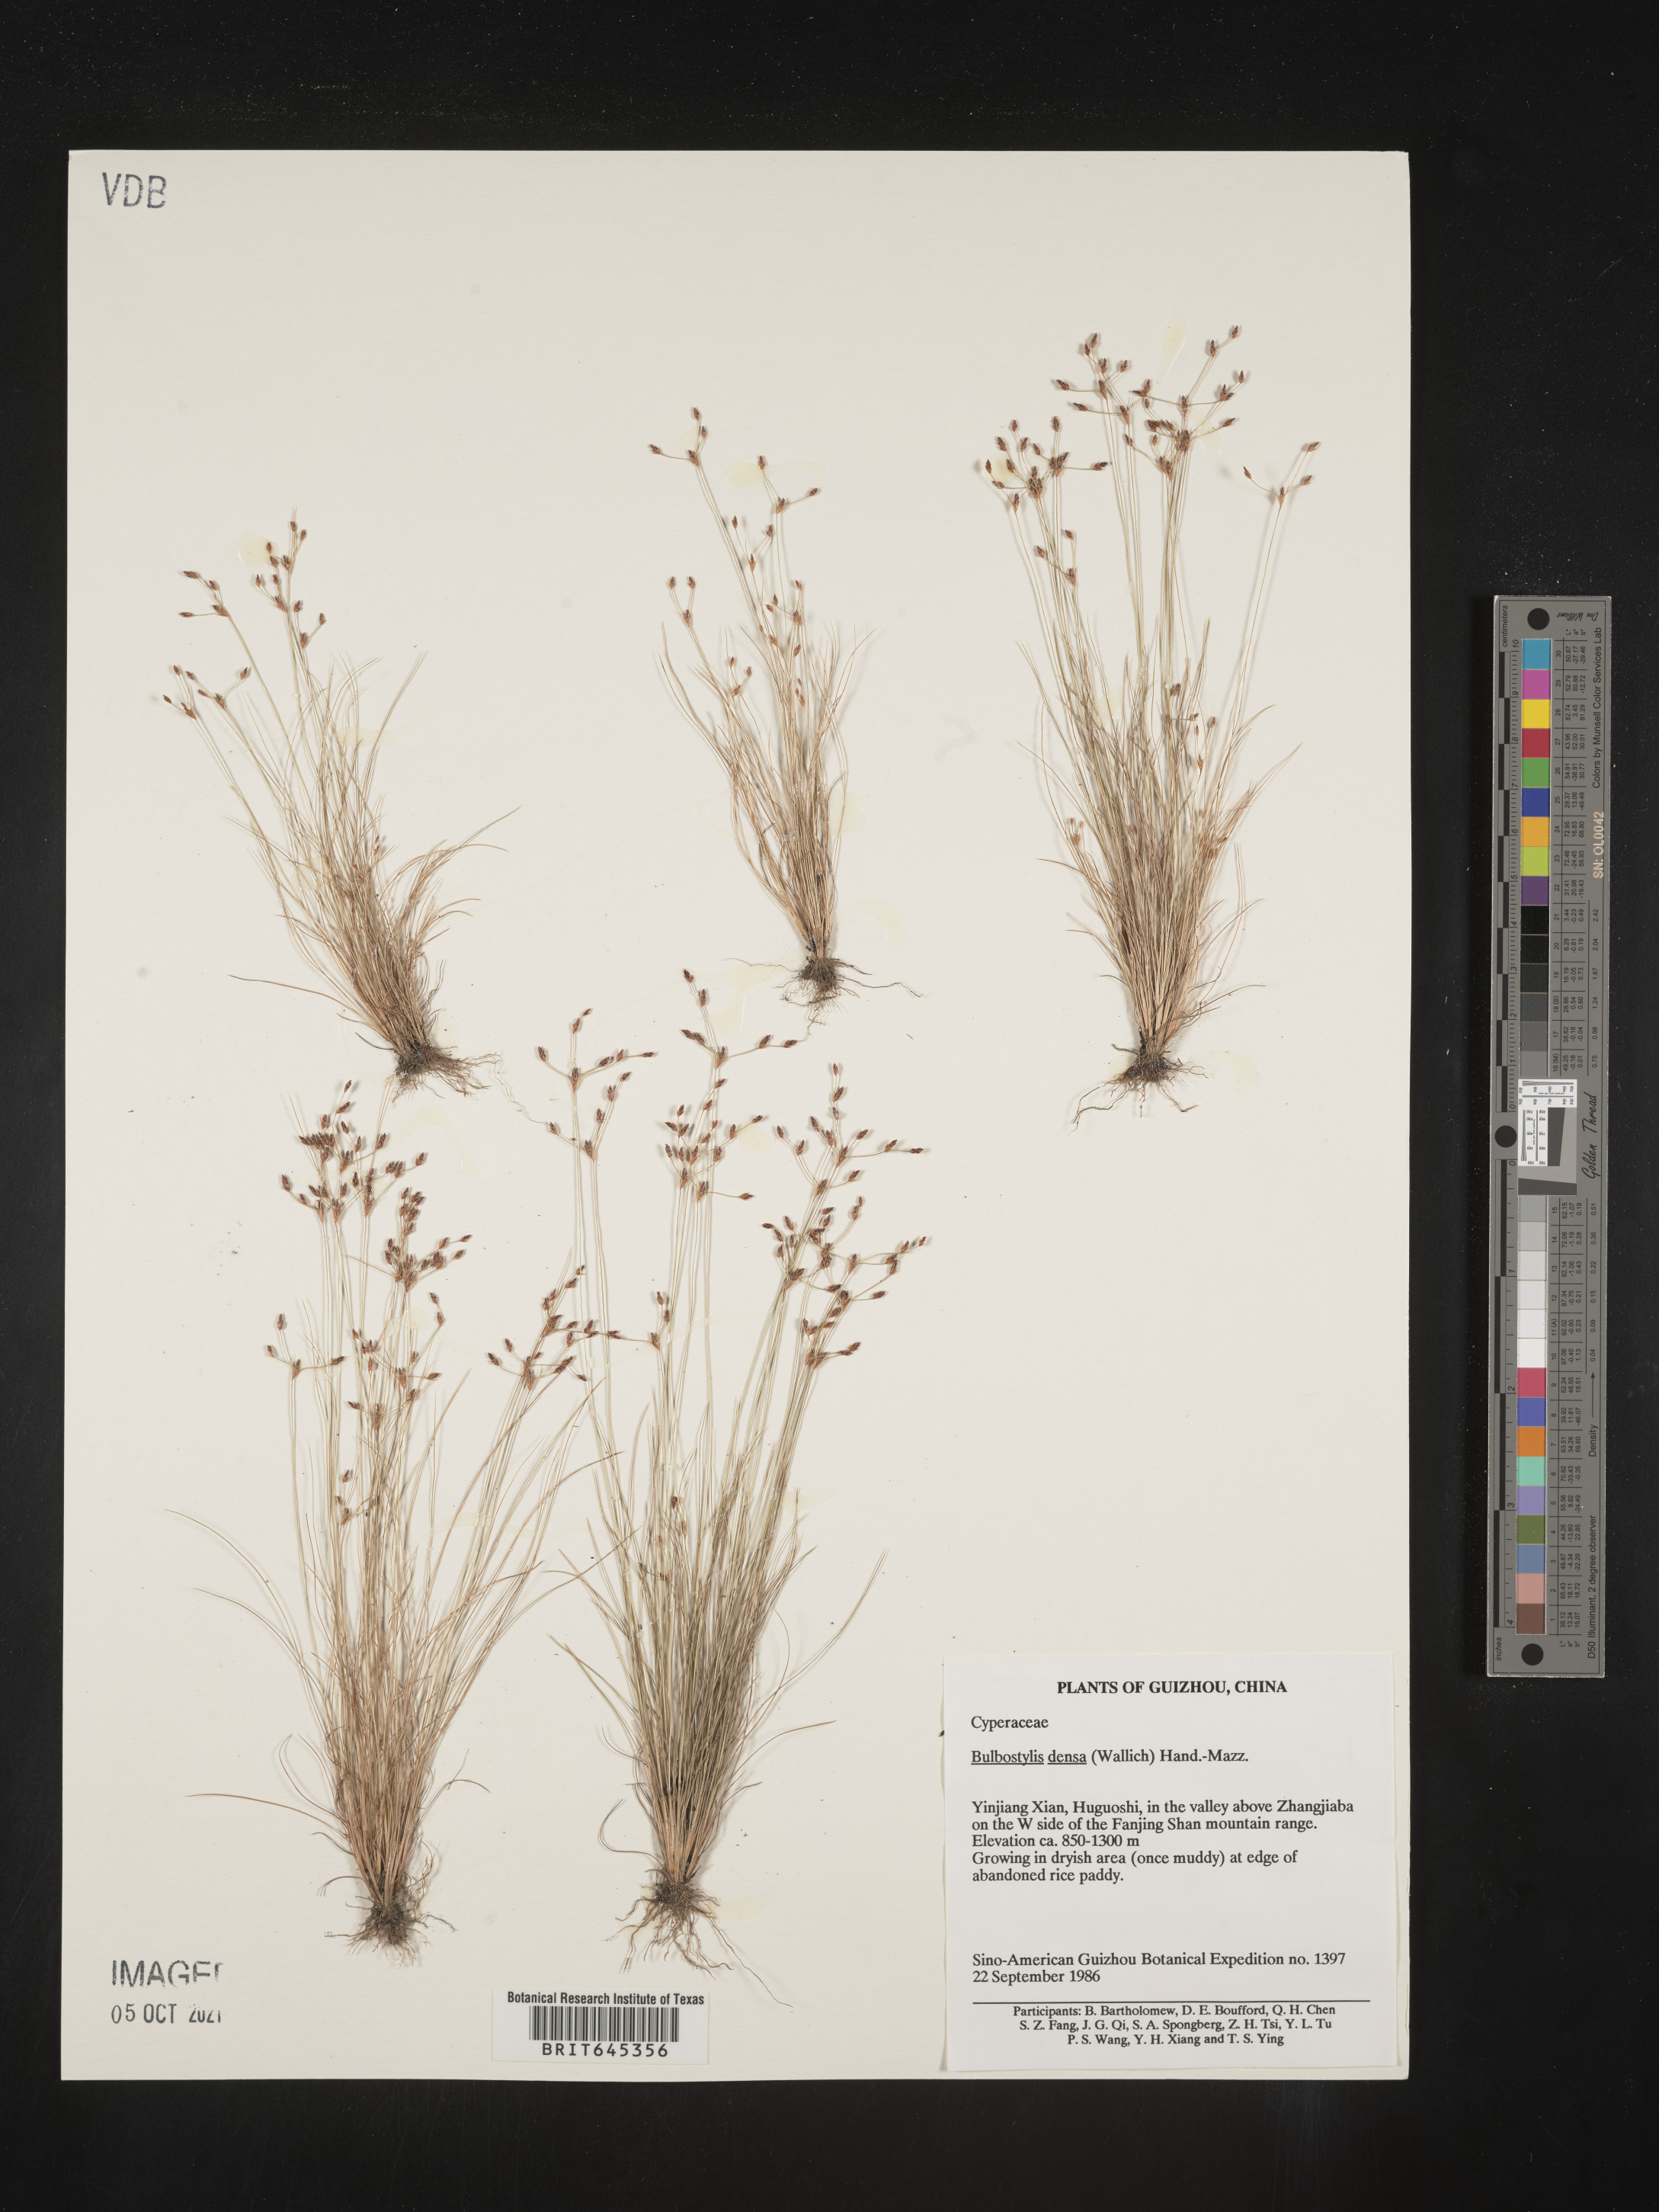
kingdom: Plantae
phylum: Tracheophyta
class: Liliopsida
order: Poales
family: Cyperaceae
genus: Bulbostylis
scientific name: Bulbostylis densa
